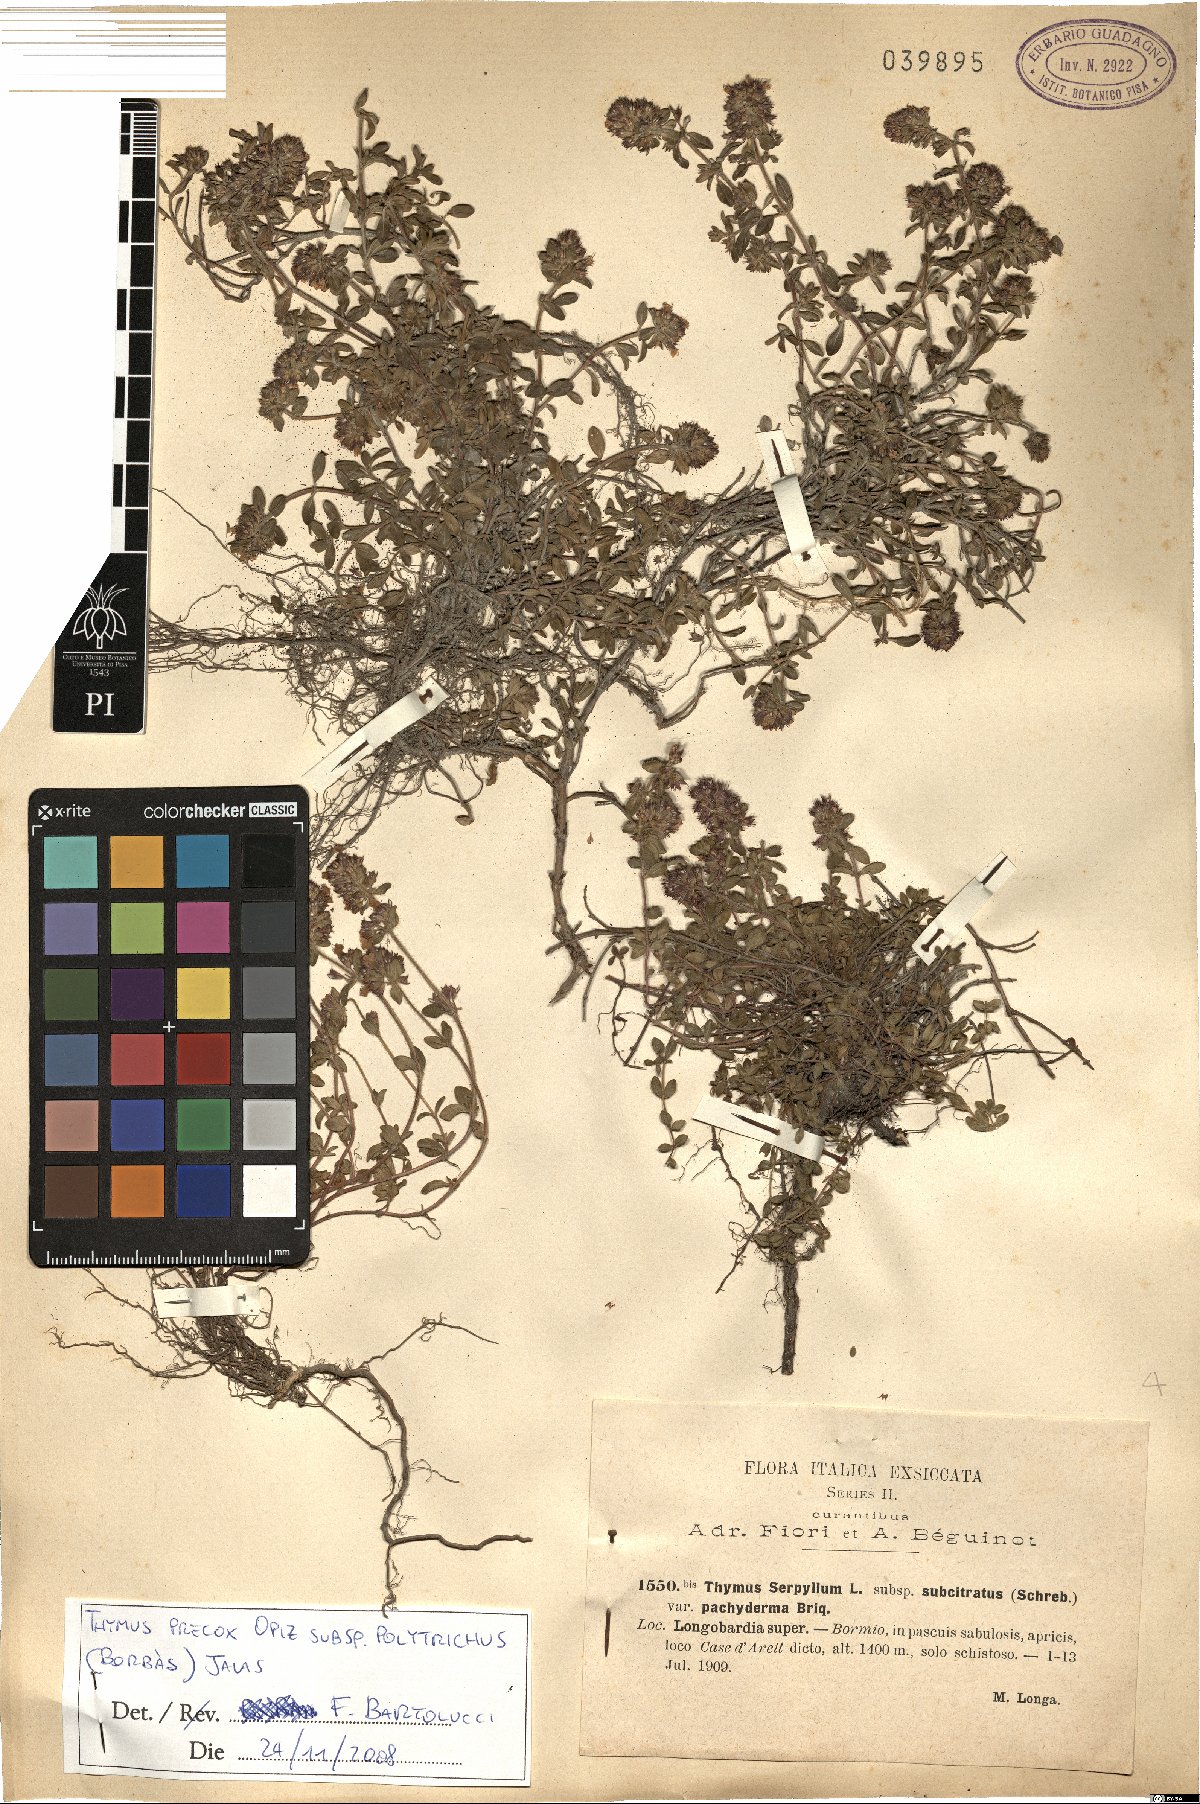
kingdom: Plantae
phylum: Tracheophyta
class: Magnoliopsida
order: Lamiales
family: Lamiaceae
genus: Thymus
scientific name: Thymus praecox
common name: Wild thyme
